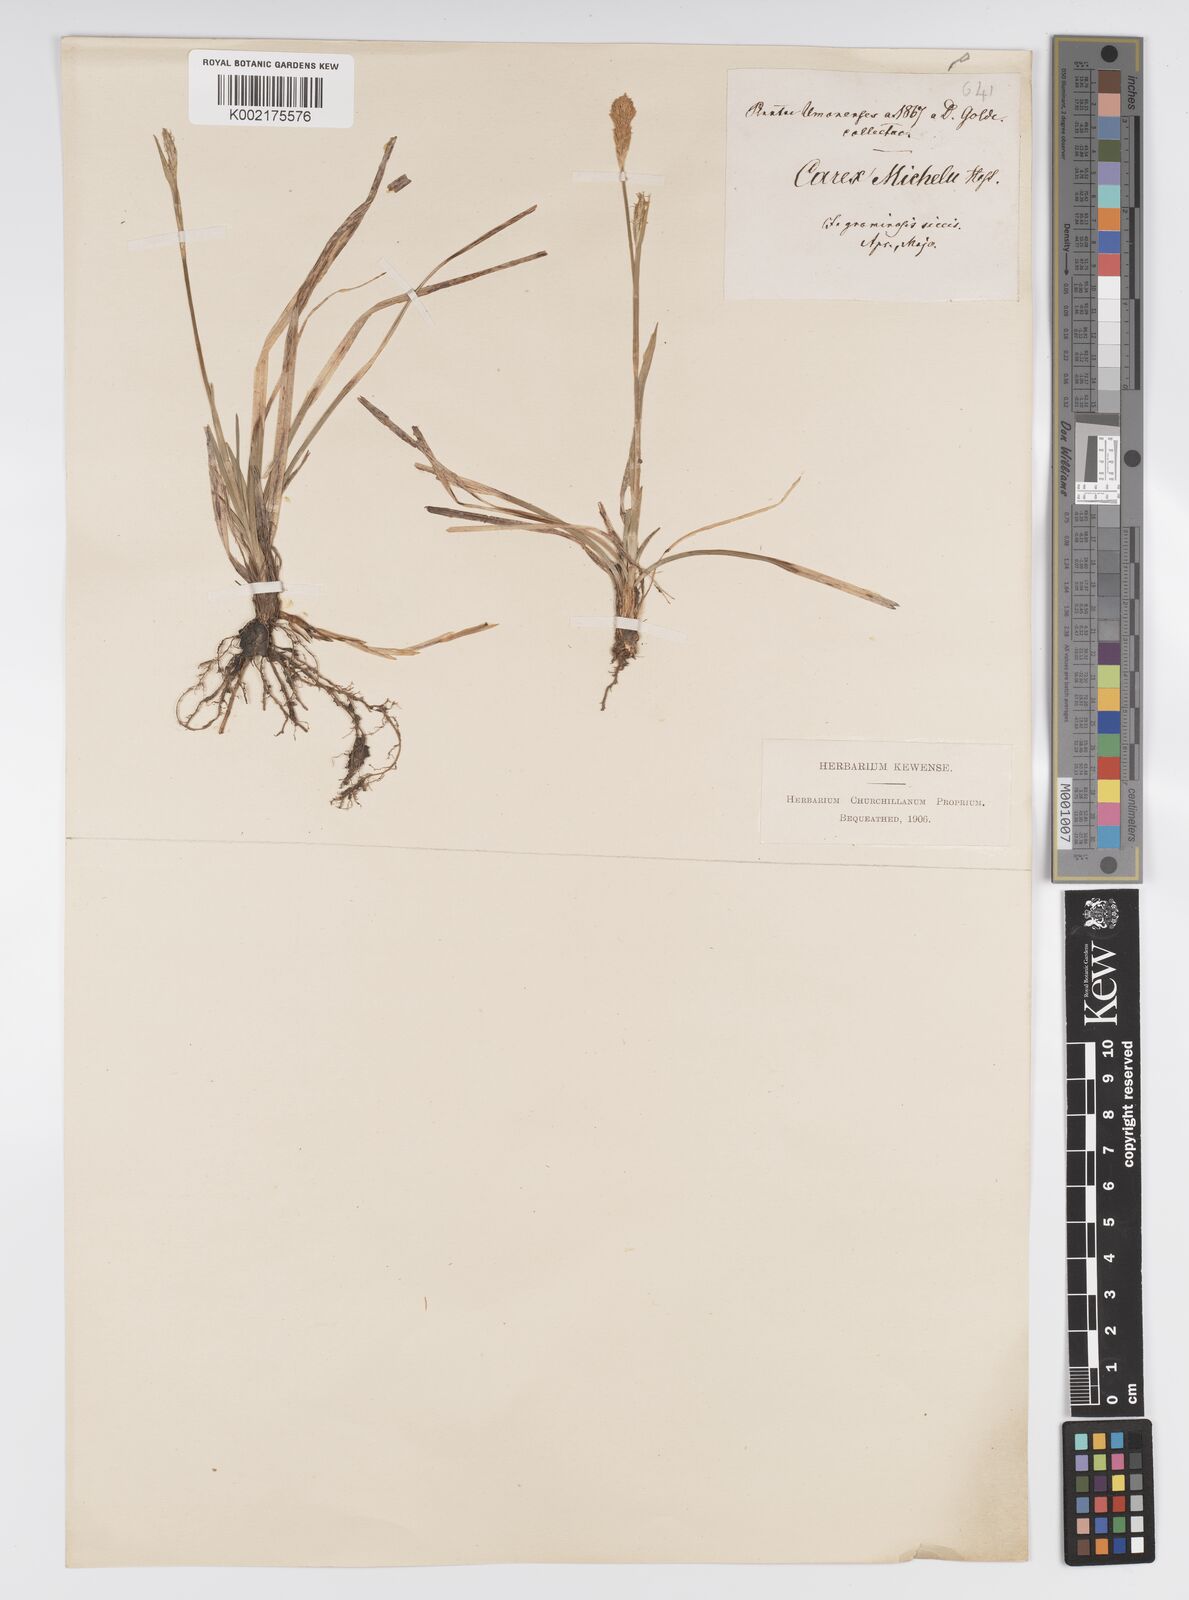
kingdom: Plantae
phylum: Tracheophyta
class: Liliopsida
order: Poales
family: Cyperaceae
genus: Carex
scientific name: Carex michelii
